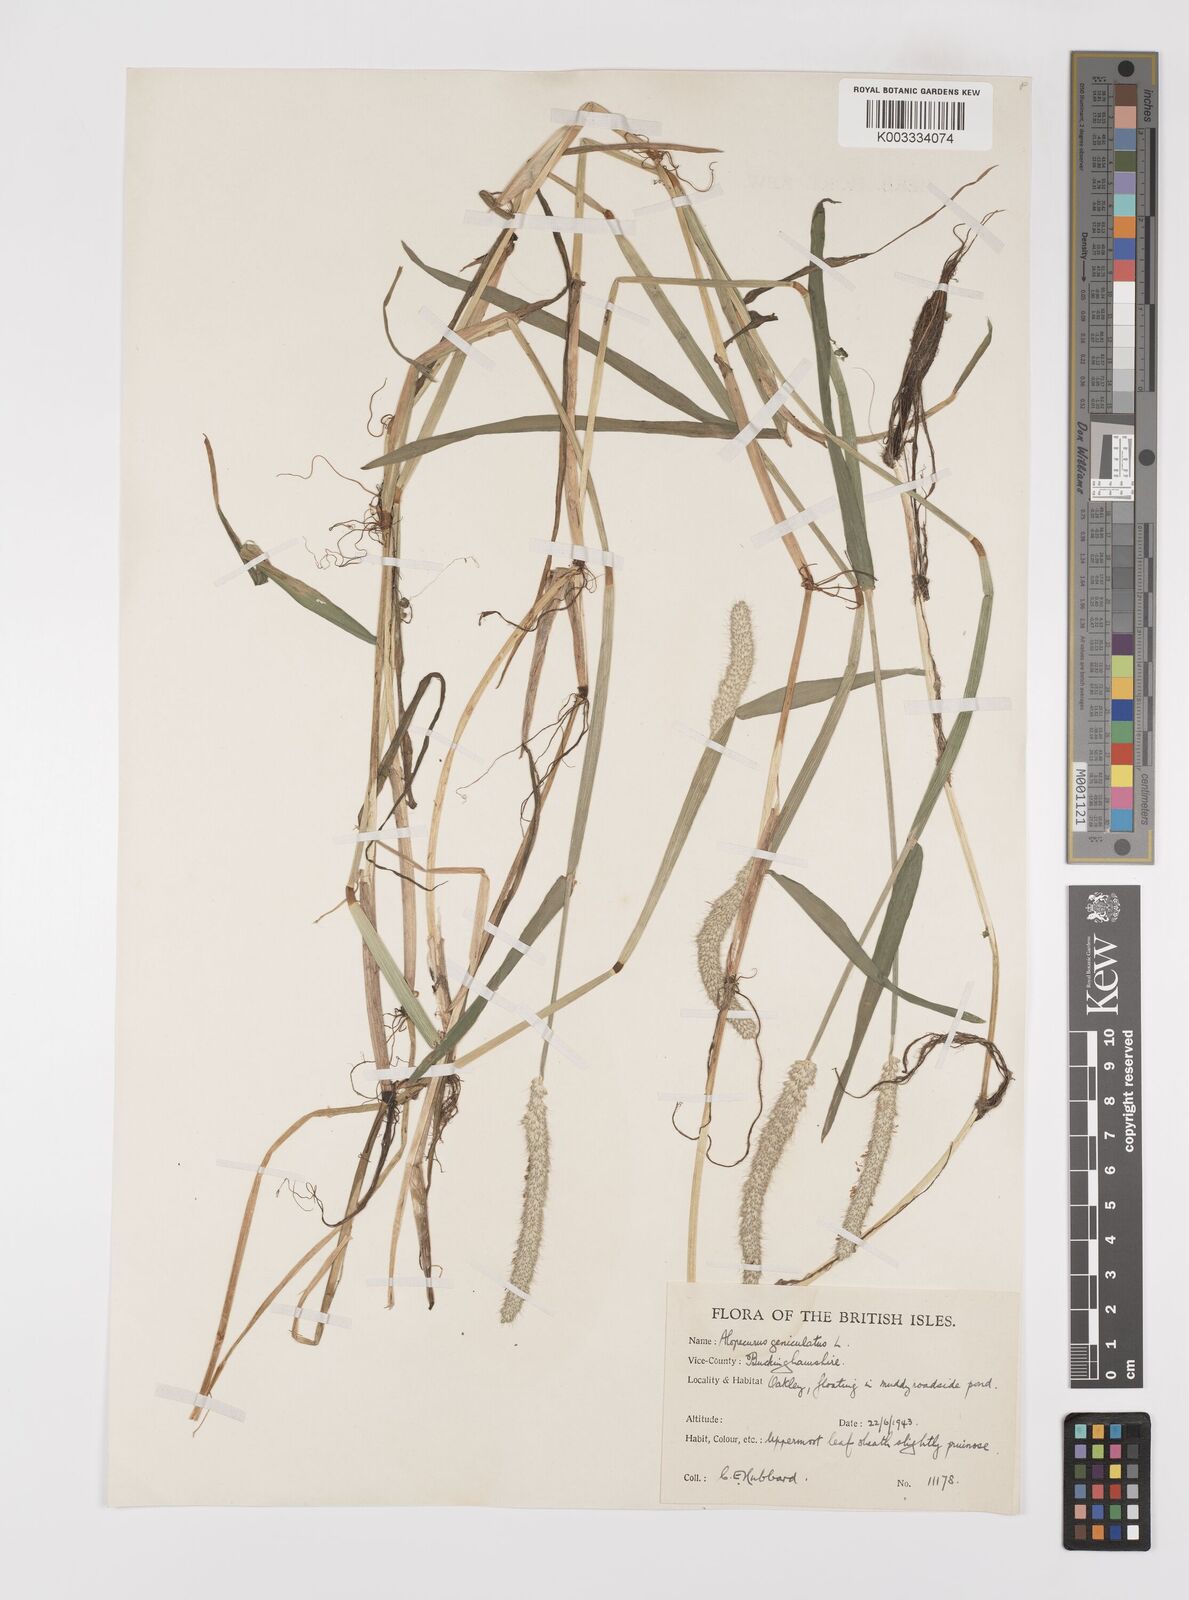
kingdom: Plantae
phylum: Tracheophyta
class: Liliopsida
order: Poales
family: Poaceae
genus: Alopecurus
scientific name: Alopecurus geniculatus
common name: Water foxtail
